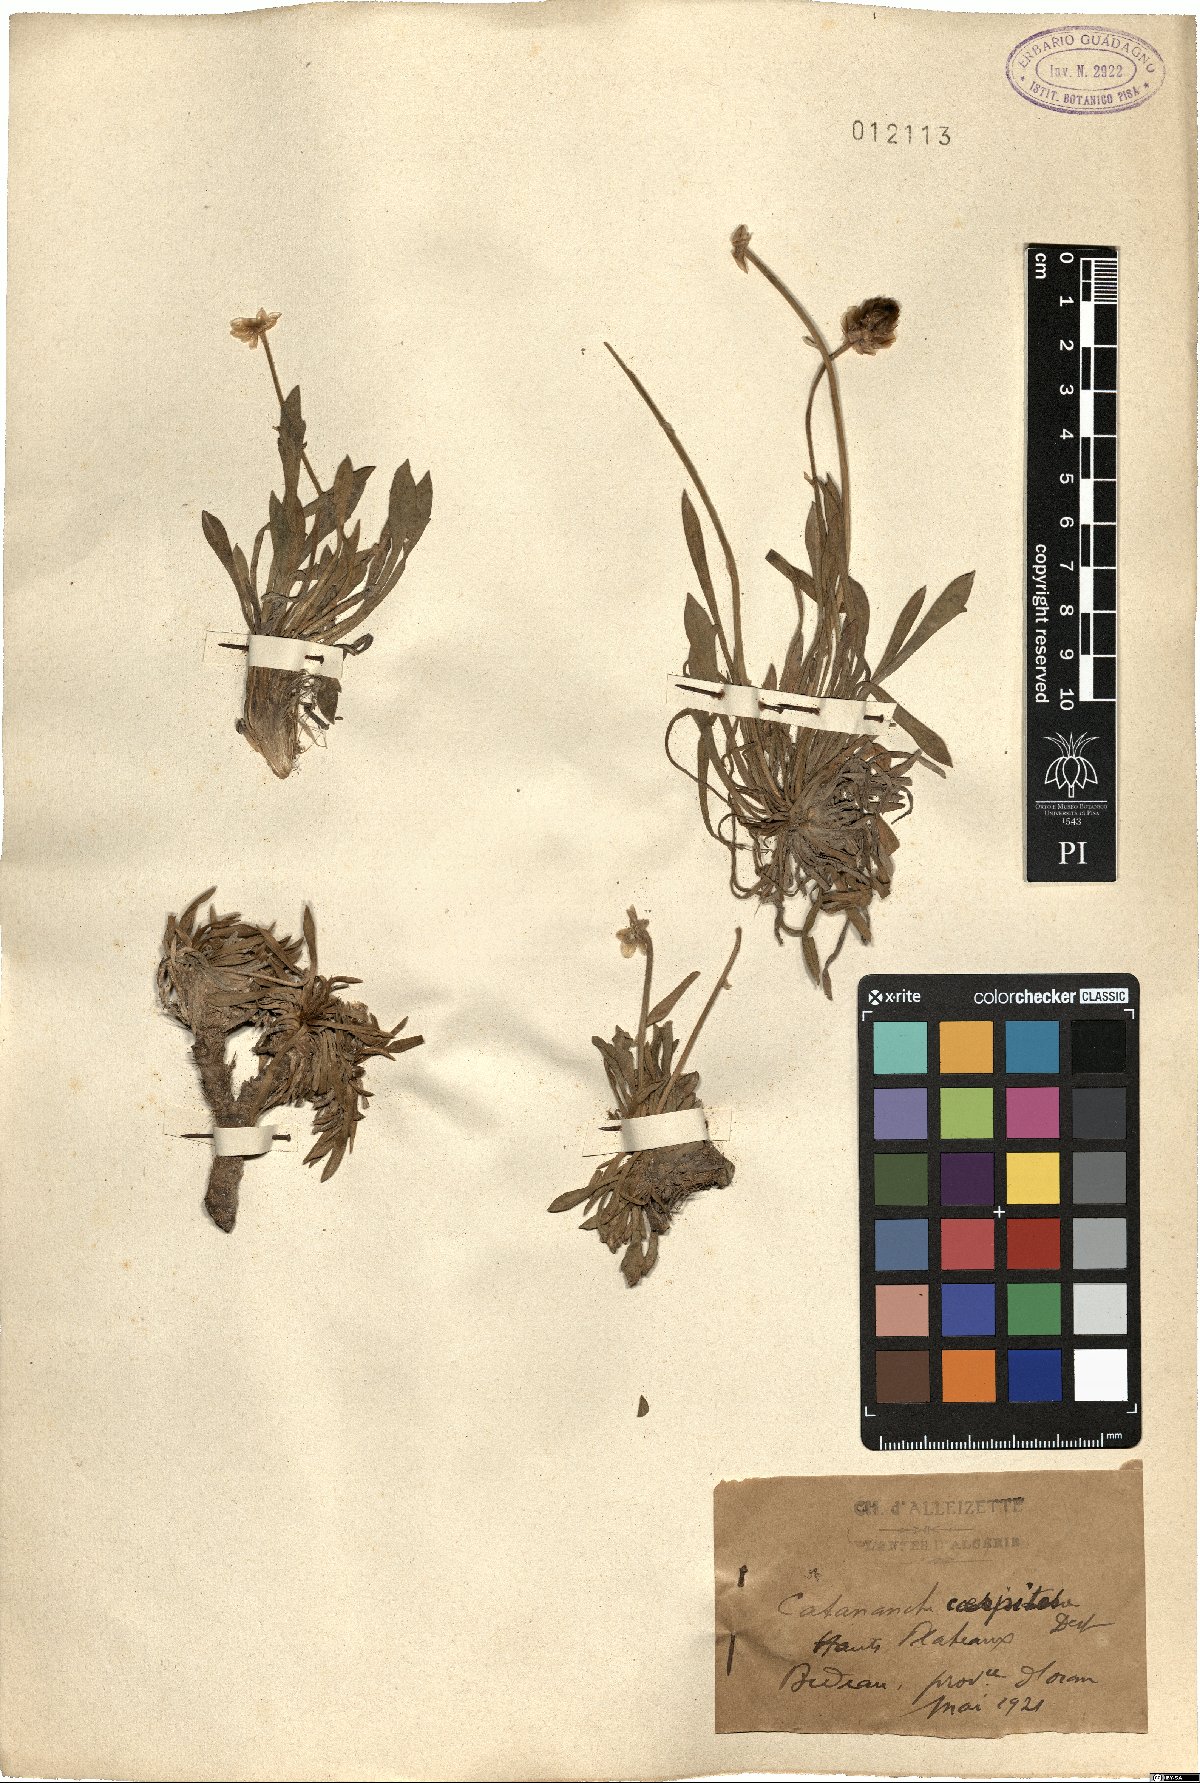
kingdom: Plantae
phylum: Tracheophyta
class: Magnoliopsida
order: Asterales
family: Asteraceae
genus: Catananche
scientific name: Catananche caespitosa
